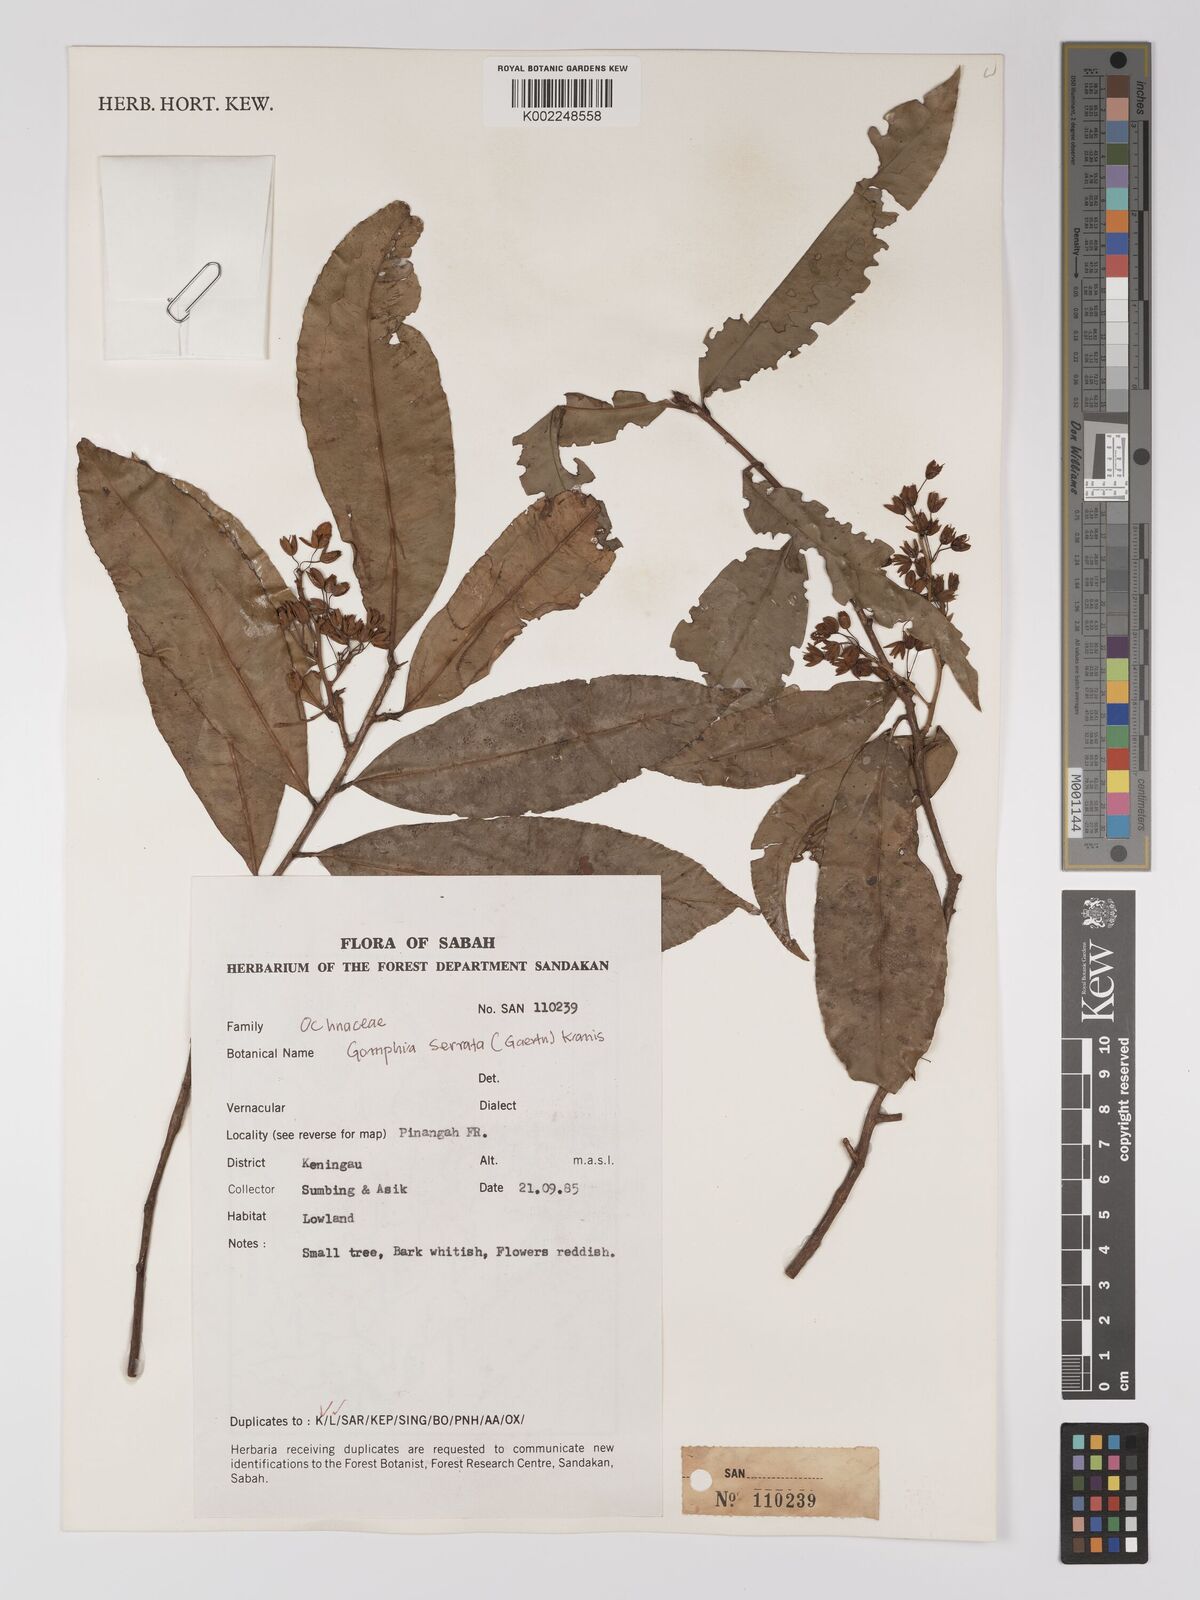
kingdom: Plantae
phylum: Tracheophyta
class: Magnoliopsida
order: Malpighiales
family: Ochnaceae
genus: Gomphia
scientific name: Gomphia serrata
